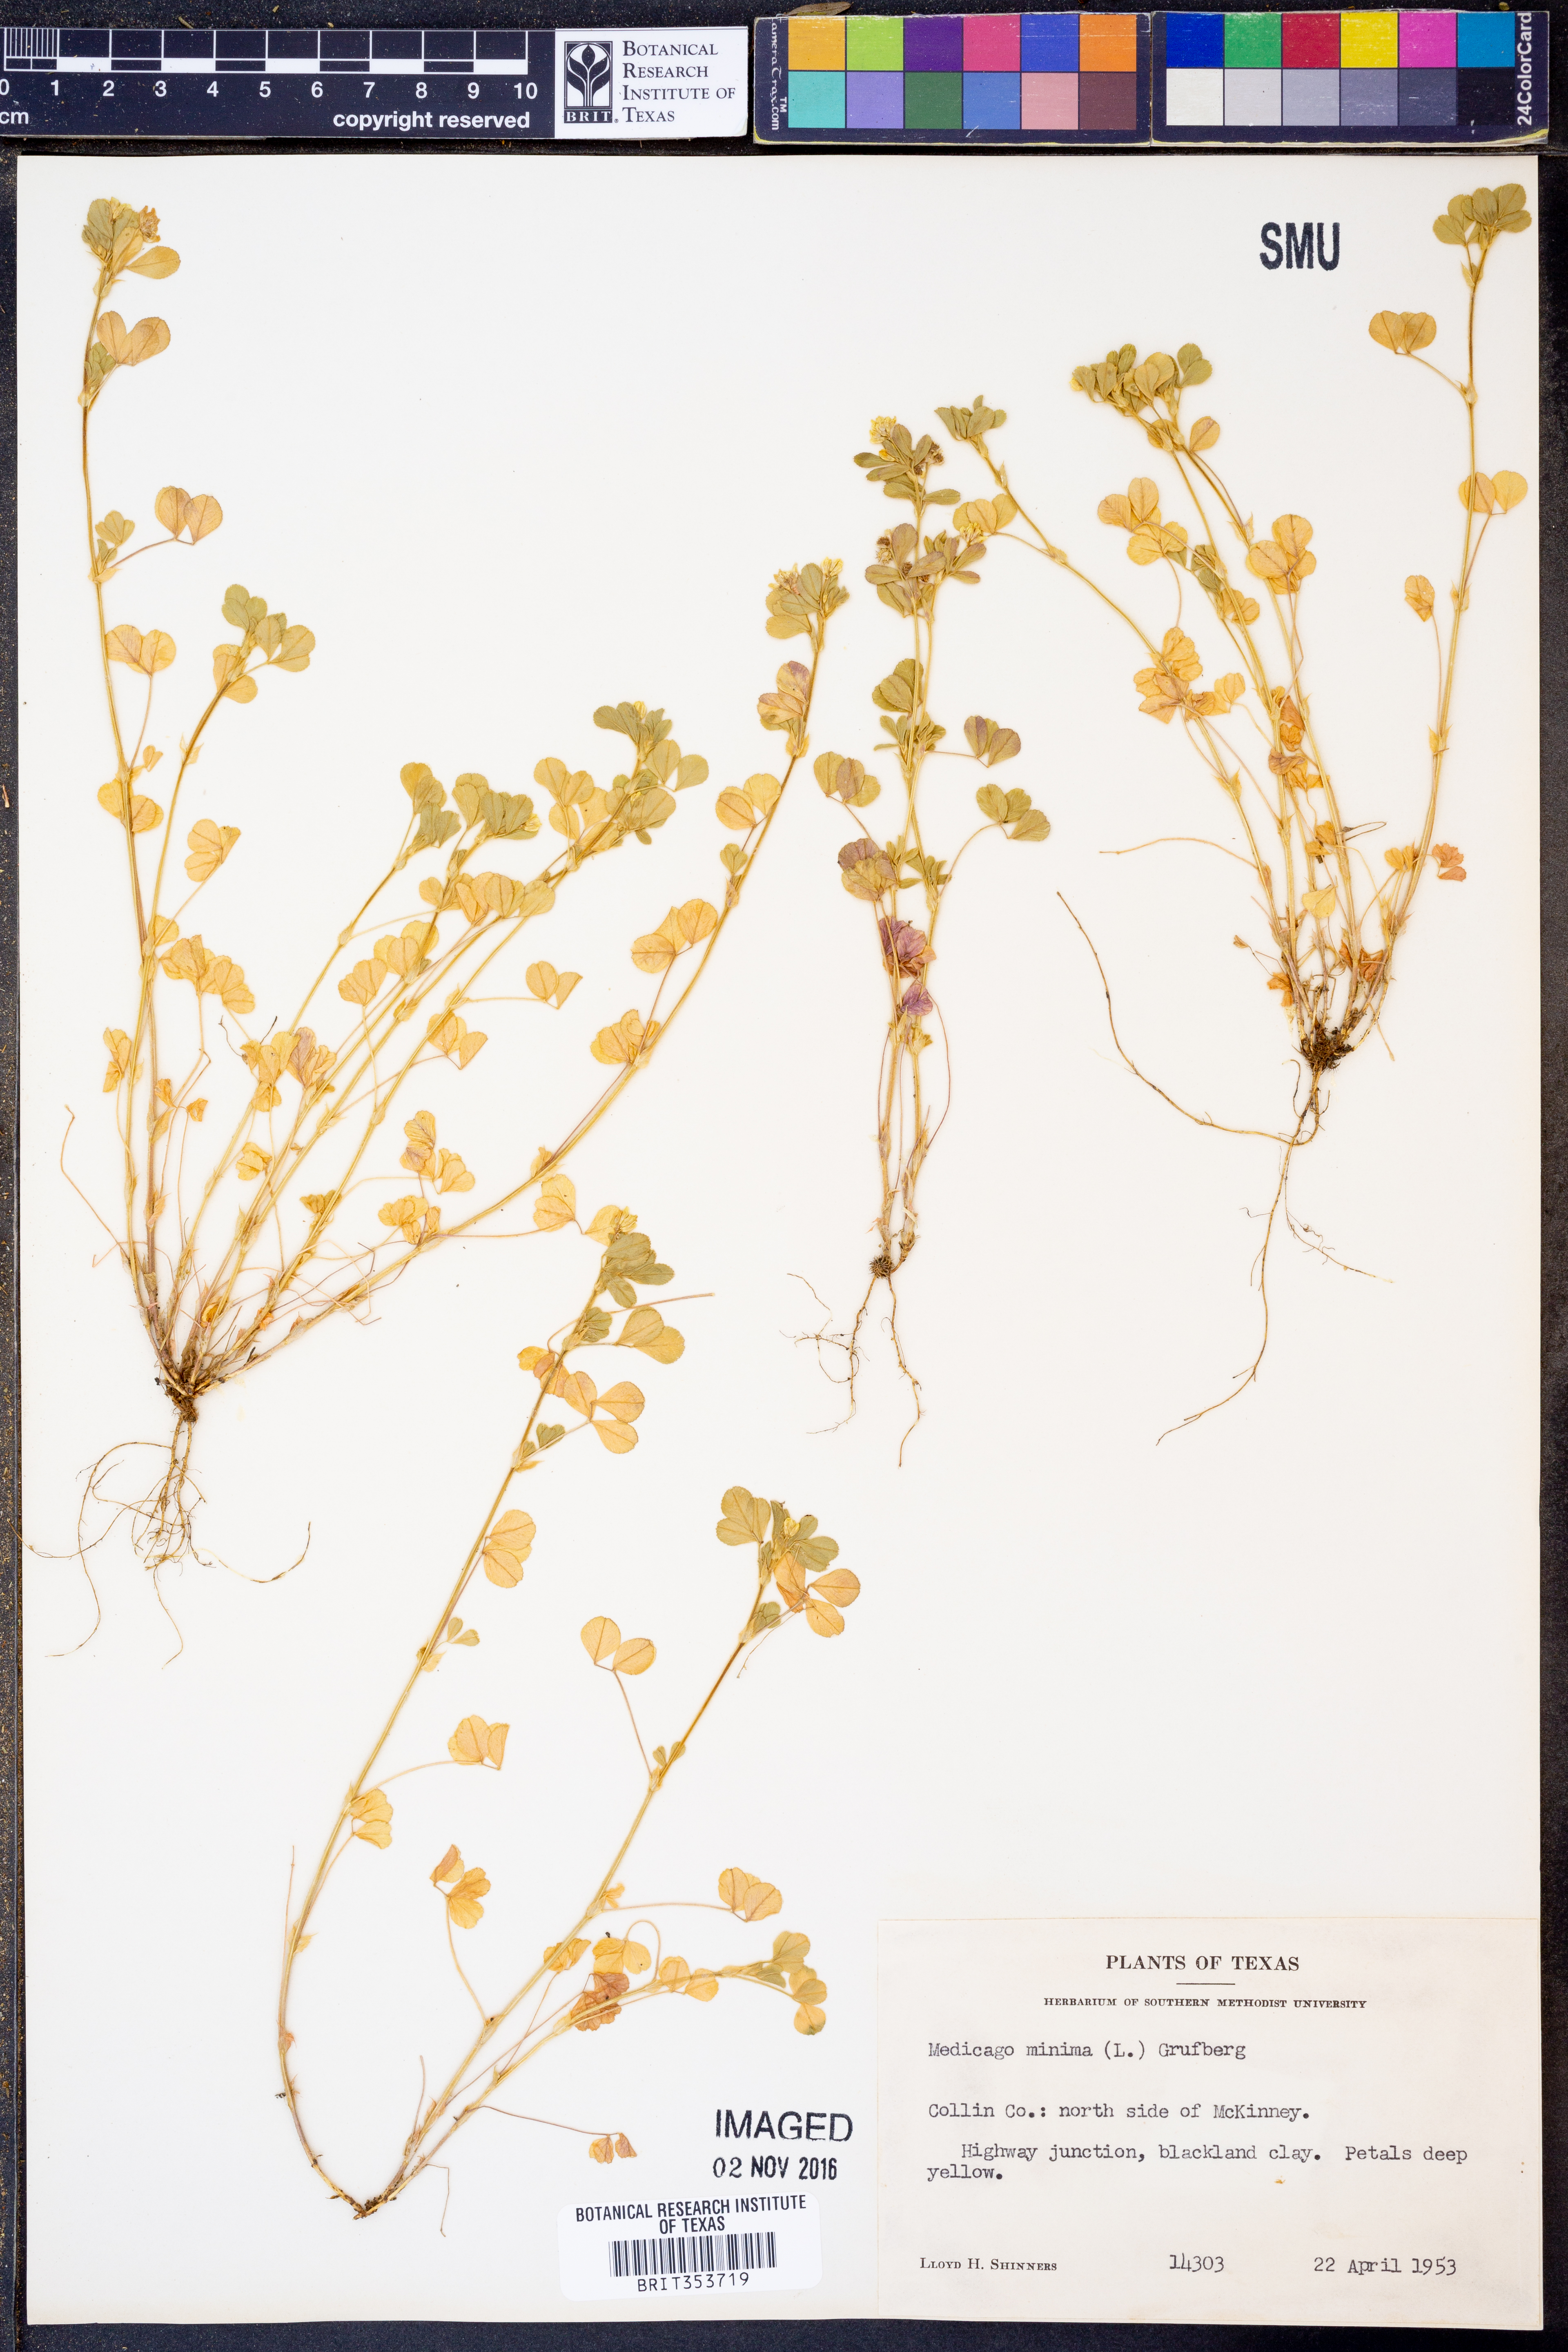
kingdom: Plantae
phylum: Tracheophyta
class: Magnoliopsida
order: Fabales
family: Fabaceae
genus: Medicago
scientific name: Medicago minima
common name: Little bur-clover
